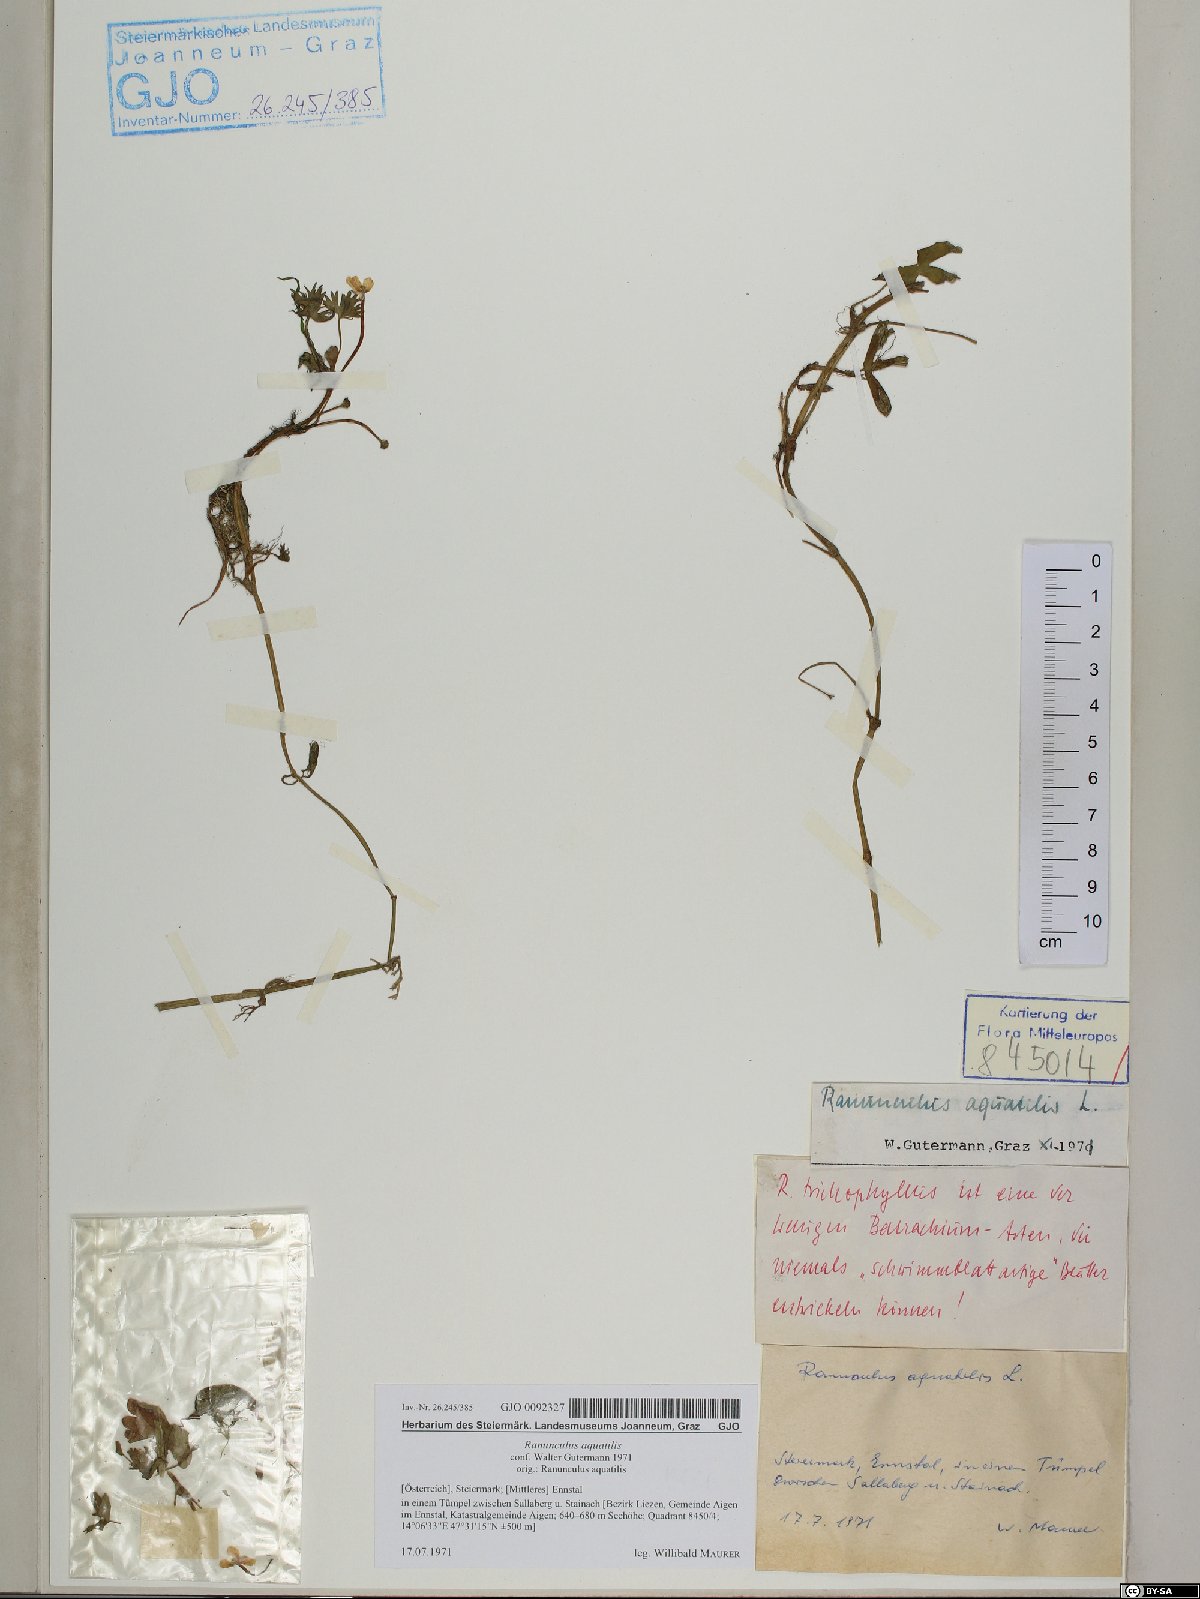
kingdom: Plantae
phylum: Tracheophyta
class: Magnoliopsida
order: Ranunculales
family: Ranunculaceae
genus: Ranunculus
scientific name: Ranunculus aquatilis
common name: Common water-crowfoot
